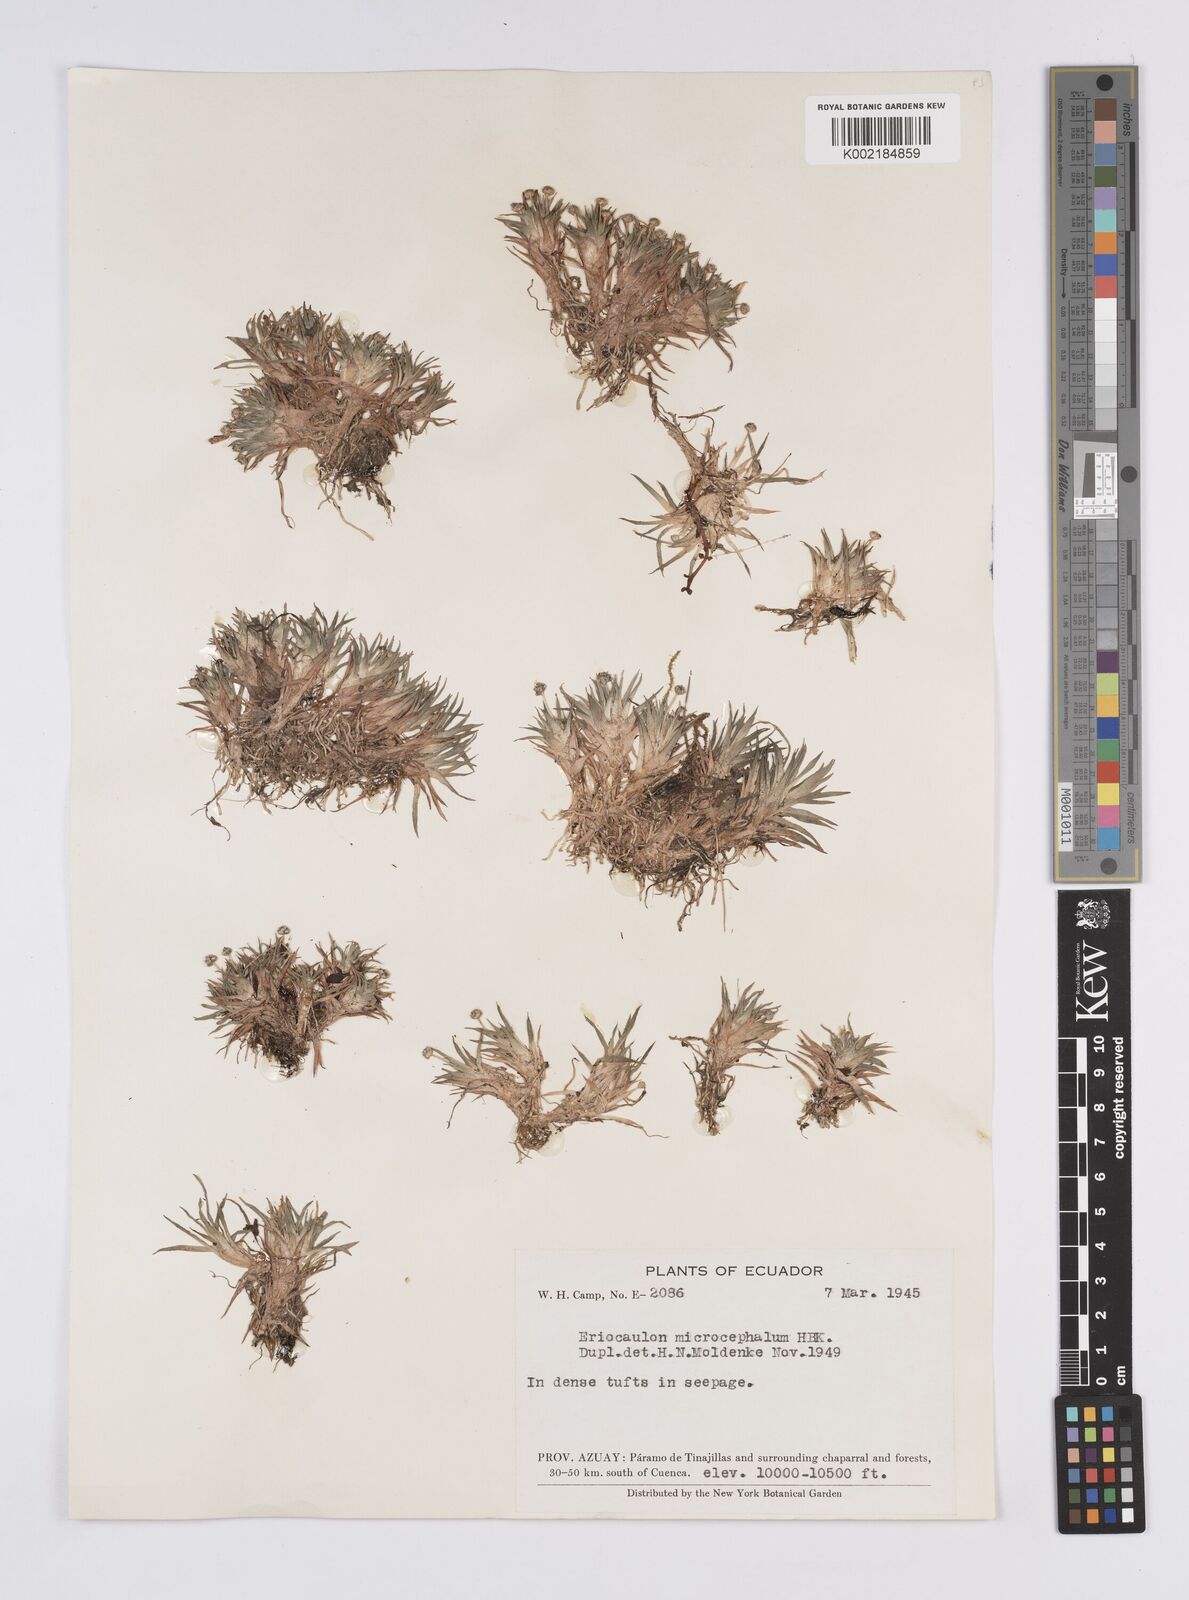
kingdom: Plantae
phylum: Tracheophyta
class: Liliopsida
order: Poales
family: Eriocaulaceae
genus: Eriocaulon
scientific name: Eriocaulon benthamii
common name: Bentham's pipewort
